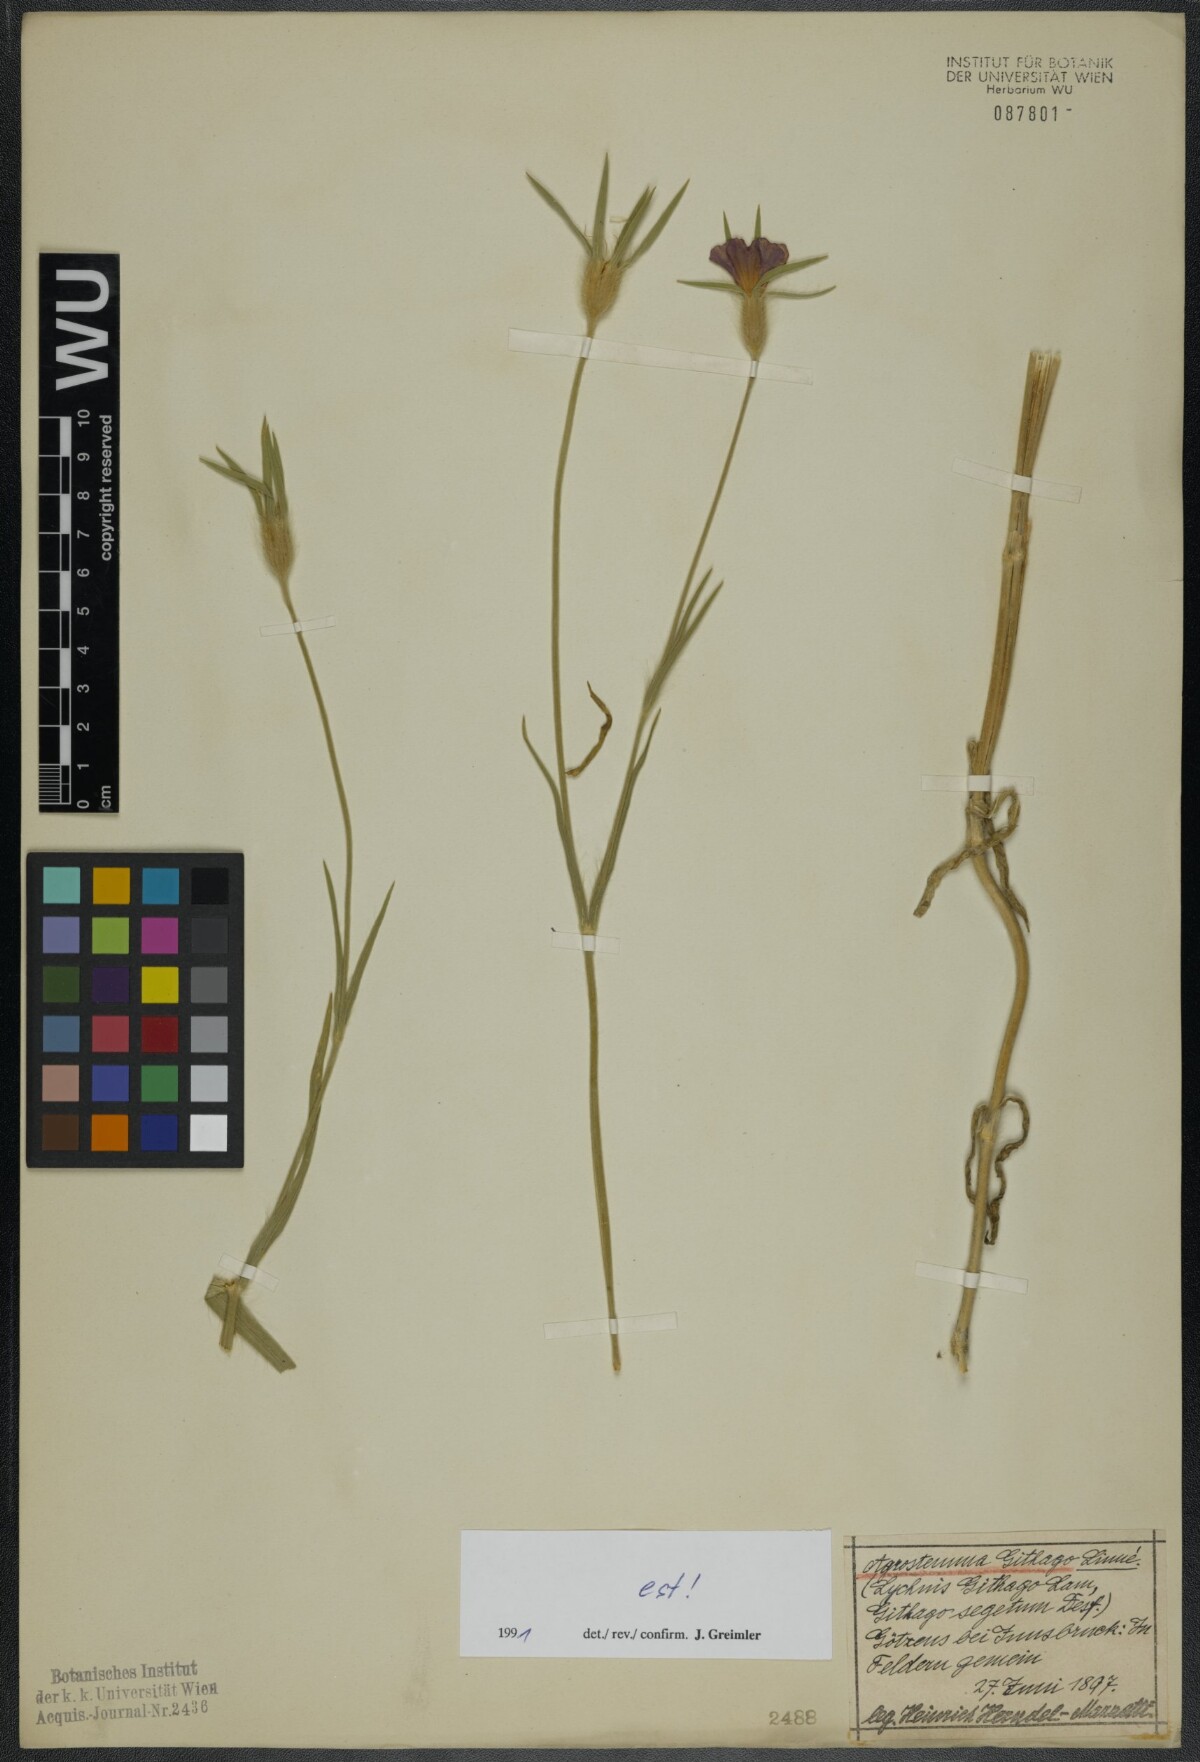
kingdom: Plantae
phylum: Tracheophyta
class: Magnoliopsida
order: Caryophyllales
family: Caryophyllaceae
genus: Agrostemma
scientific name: Agrostemma githago
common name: Common corncockle
